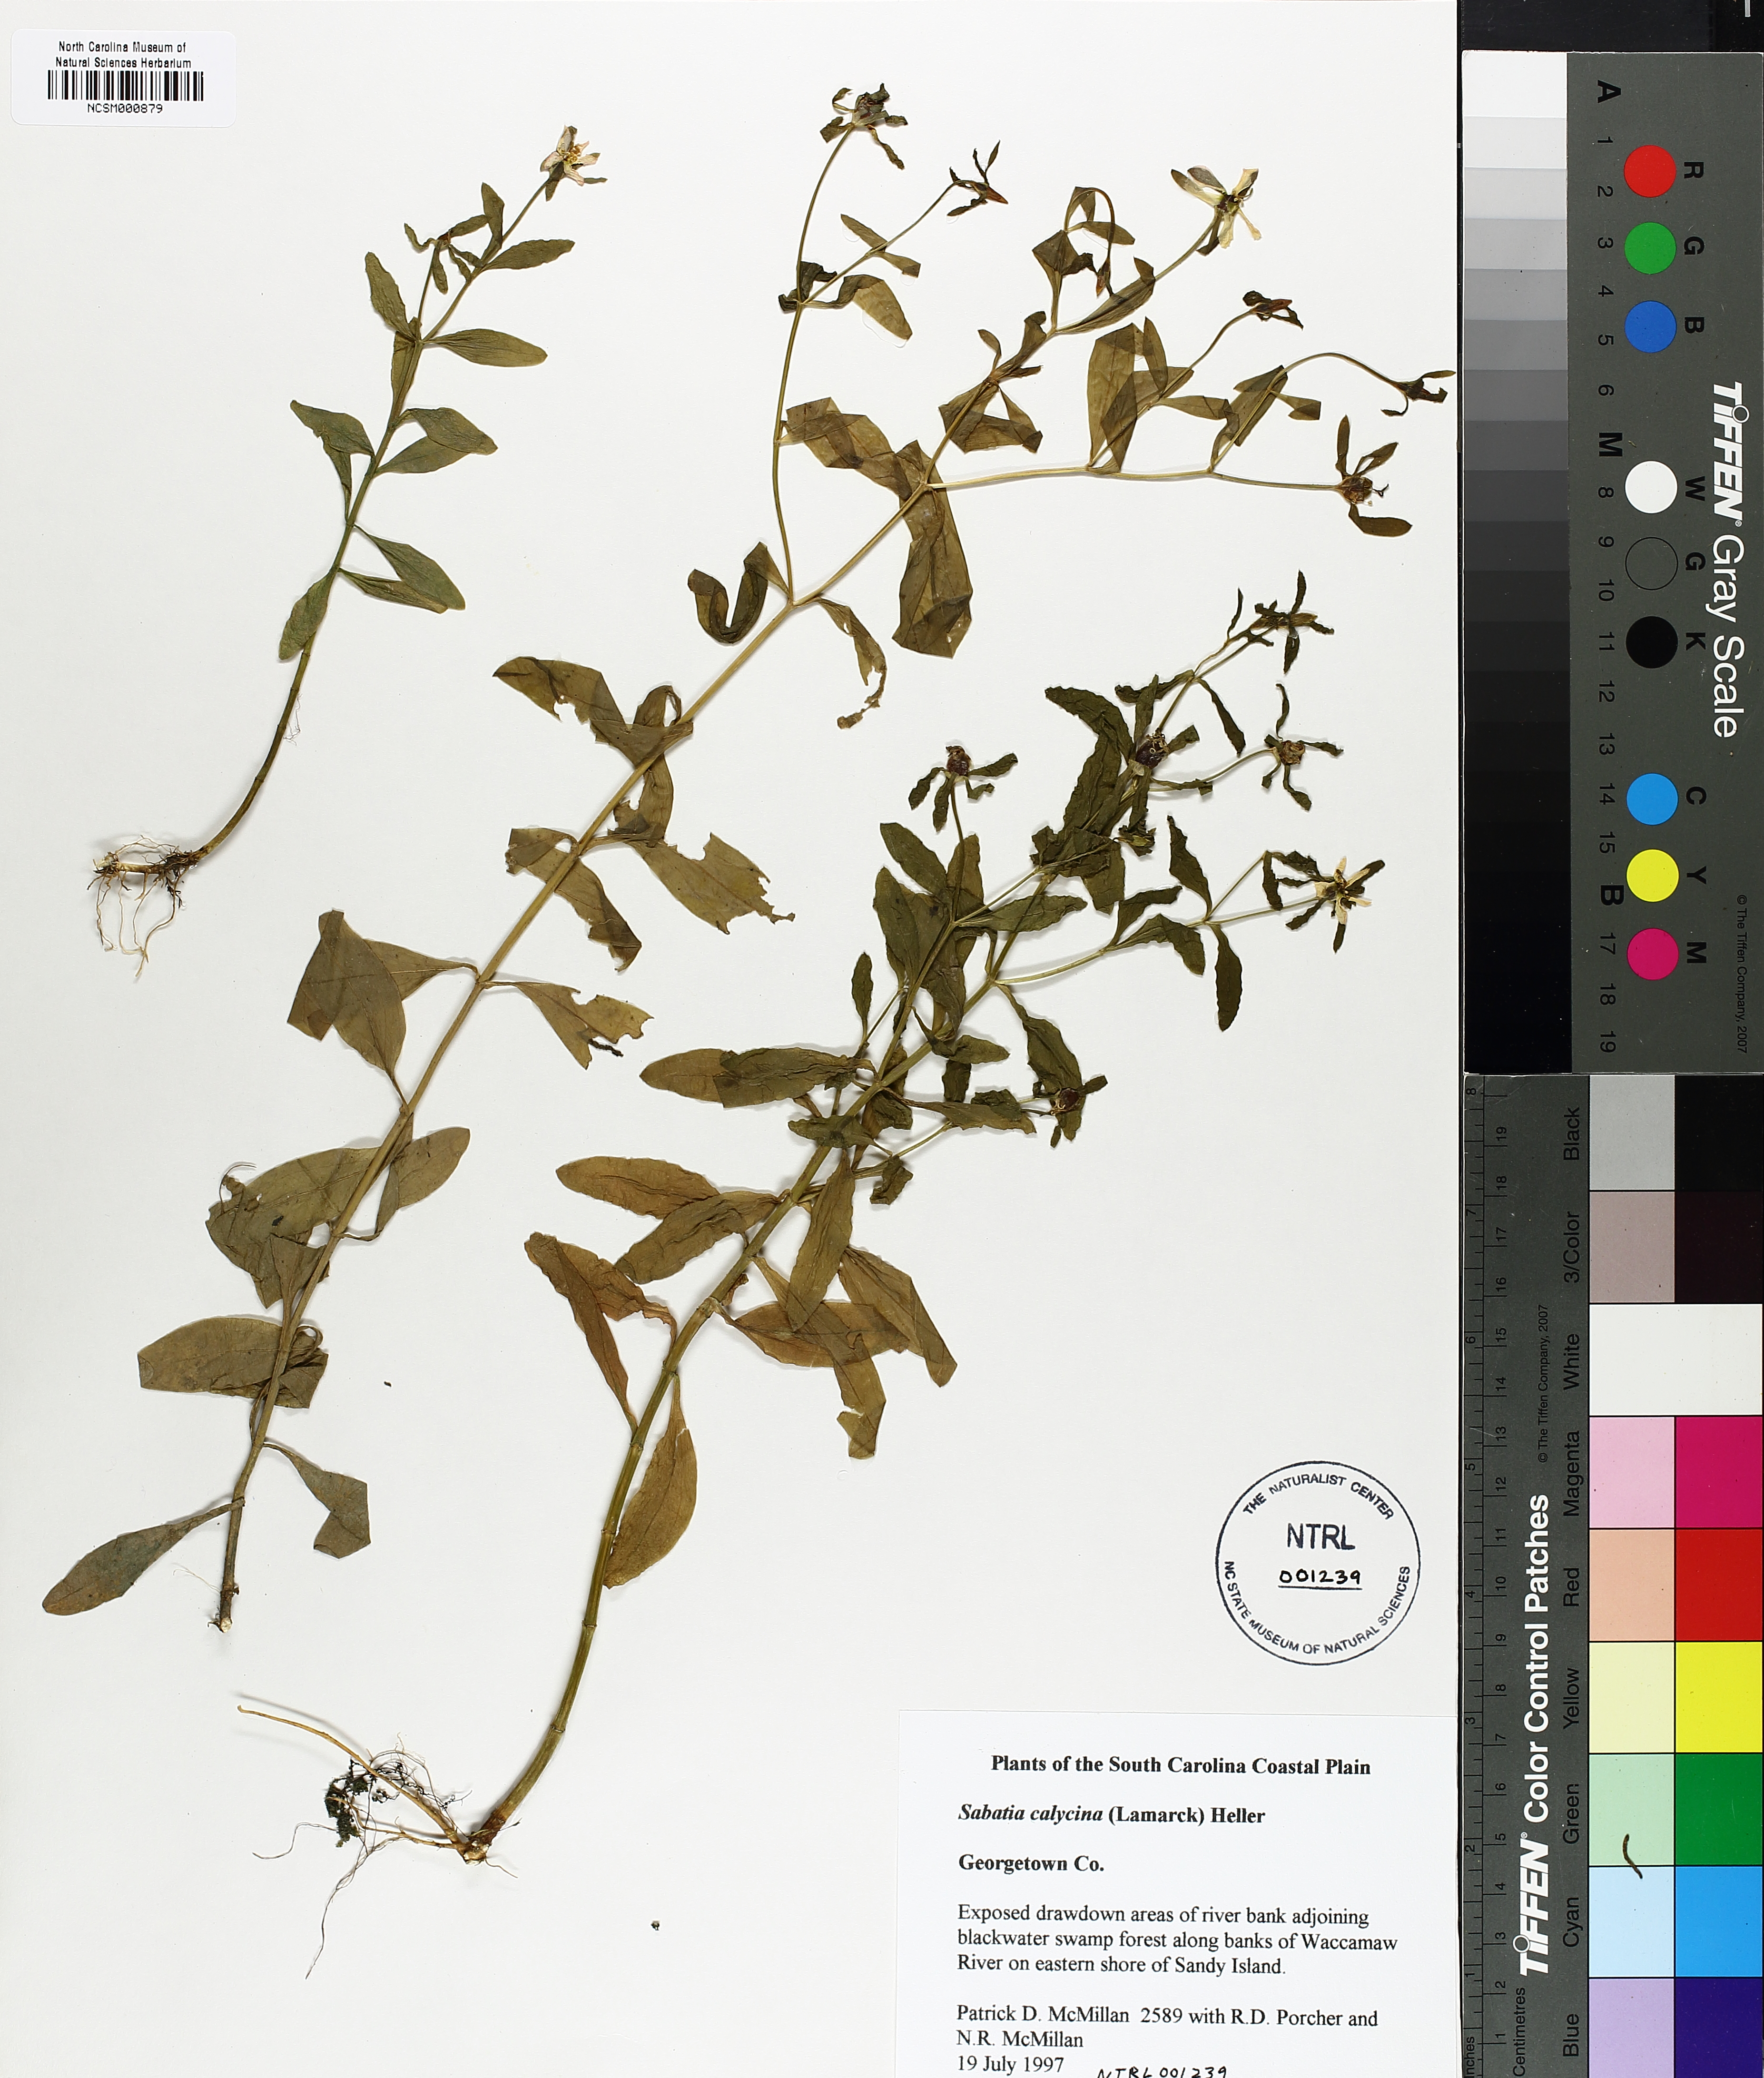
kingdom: Plantae
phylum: Tracheophyta
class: Magnoliopsida
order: Gentianales
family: Gentianaceae
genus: Sabatia
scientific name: Sabatia calycina
